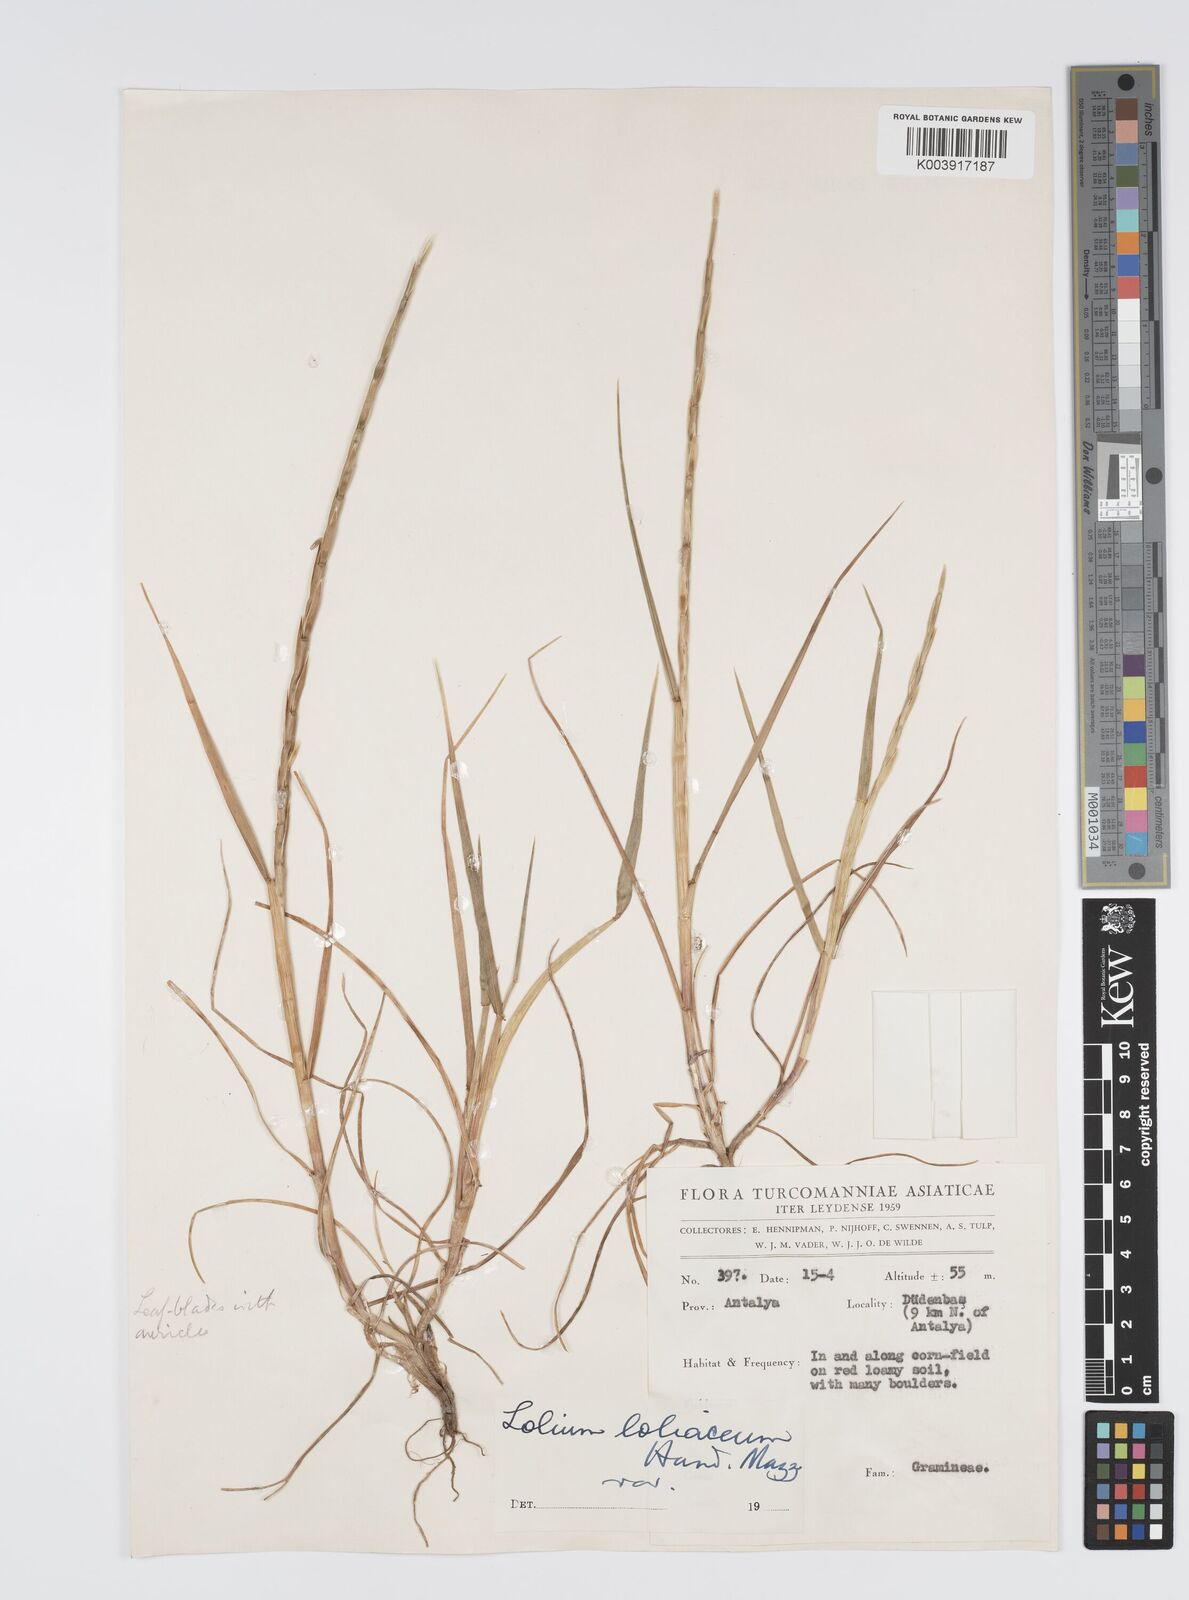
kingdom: Plantae
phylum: Tracheophyta
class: Liliopsida
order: Poales
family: Poaceae
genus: Lolium
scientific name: Lolium rigidum
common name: Wimmera ryegrass
